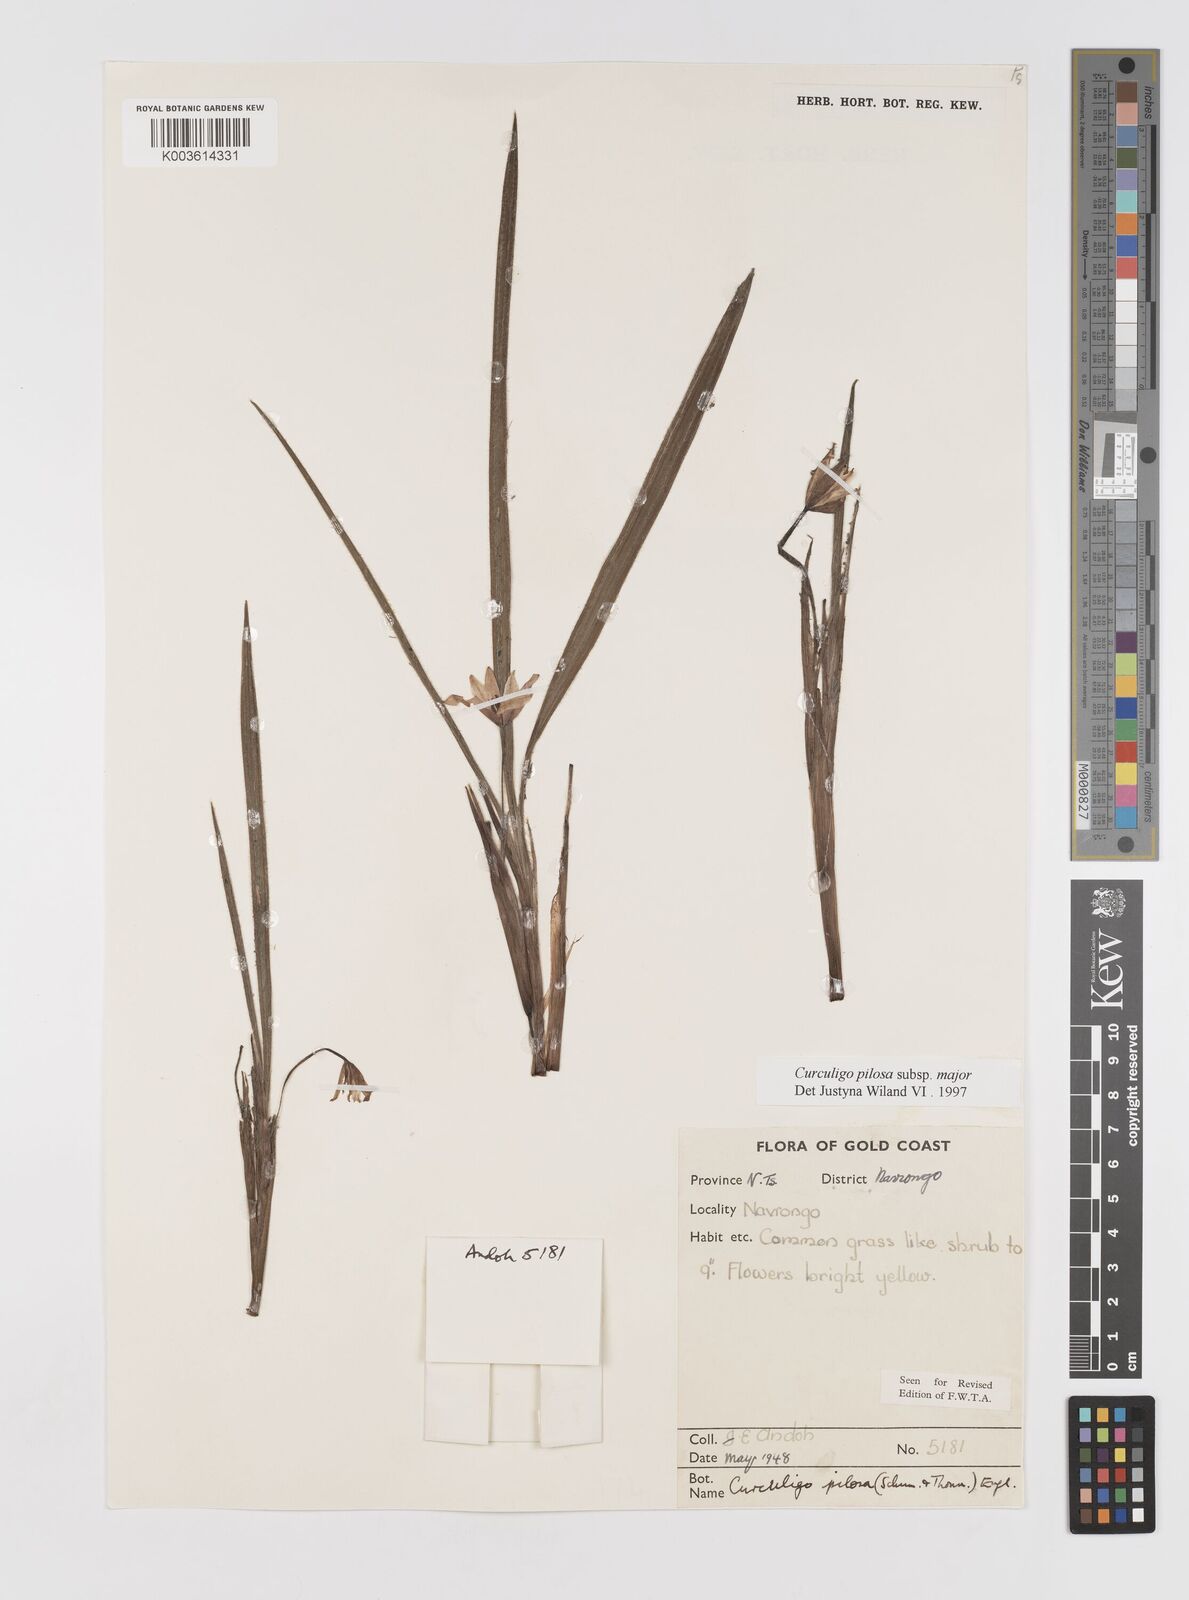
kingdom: Plantae
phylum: Tracheophyta
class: Liliopsida
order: Asparagales
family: Hypoxidaceae
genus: Curculigo
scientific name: Curculigo pilosa
